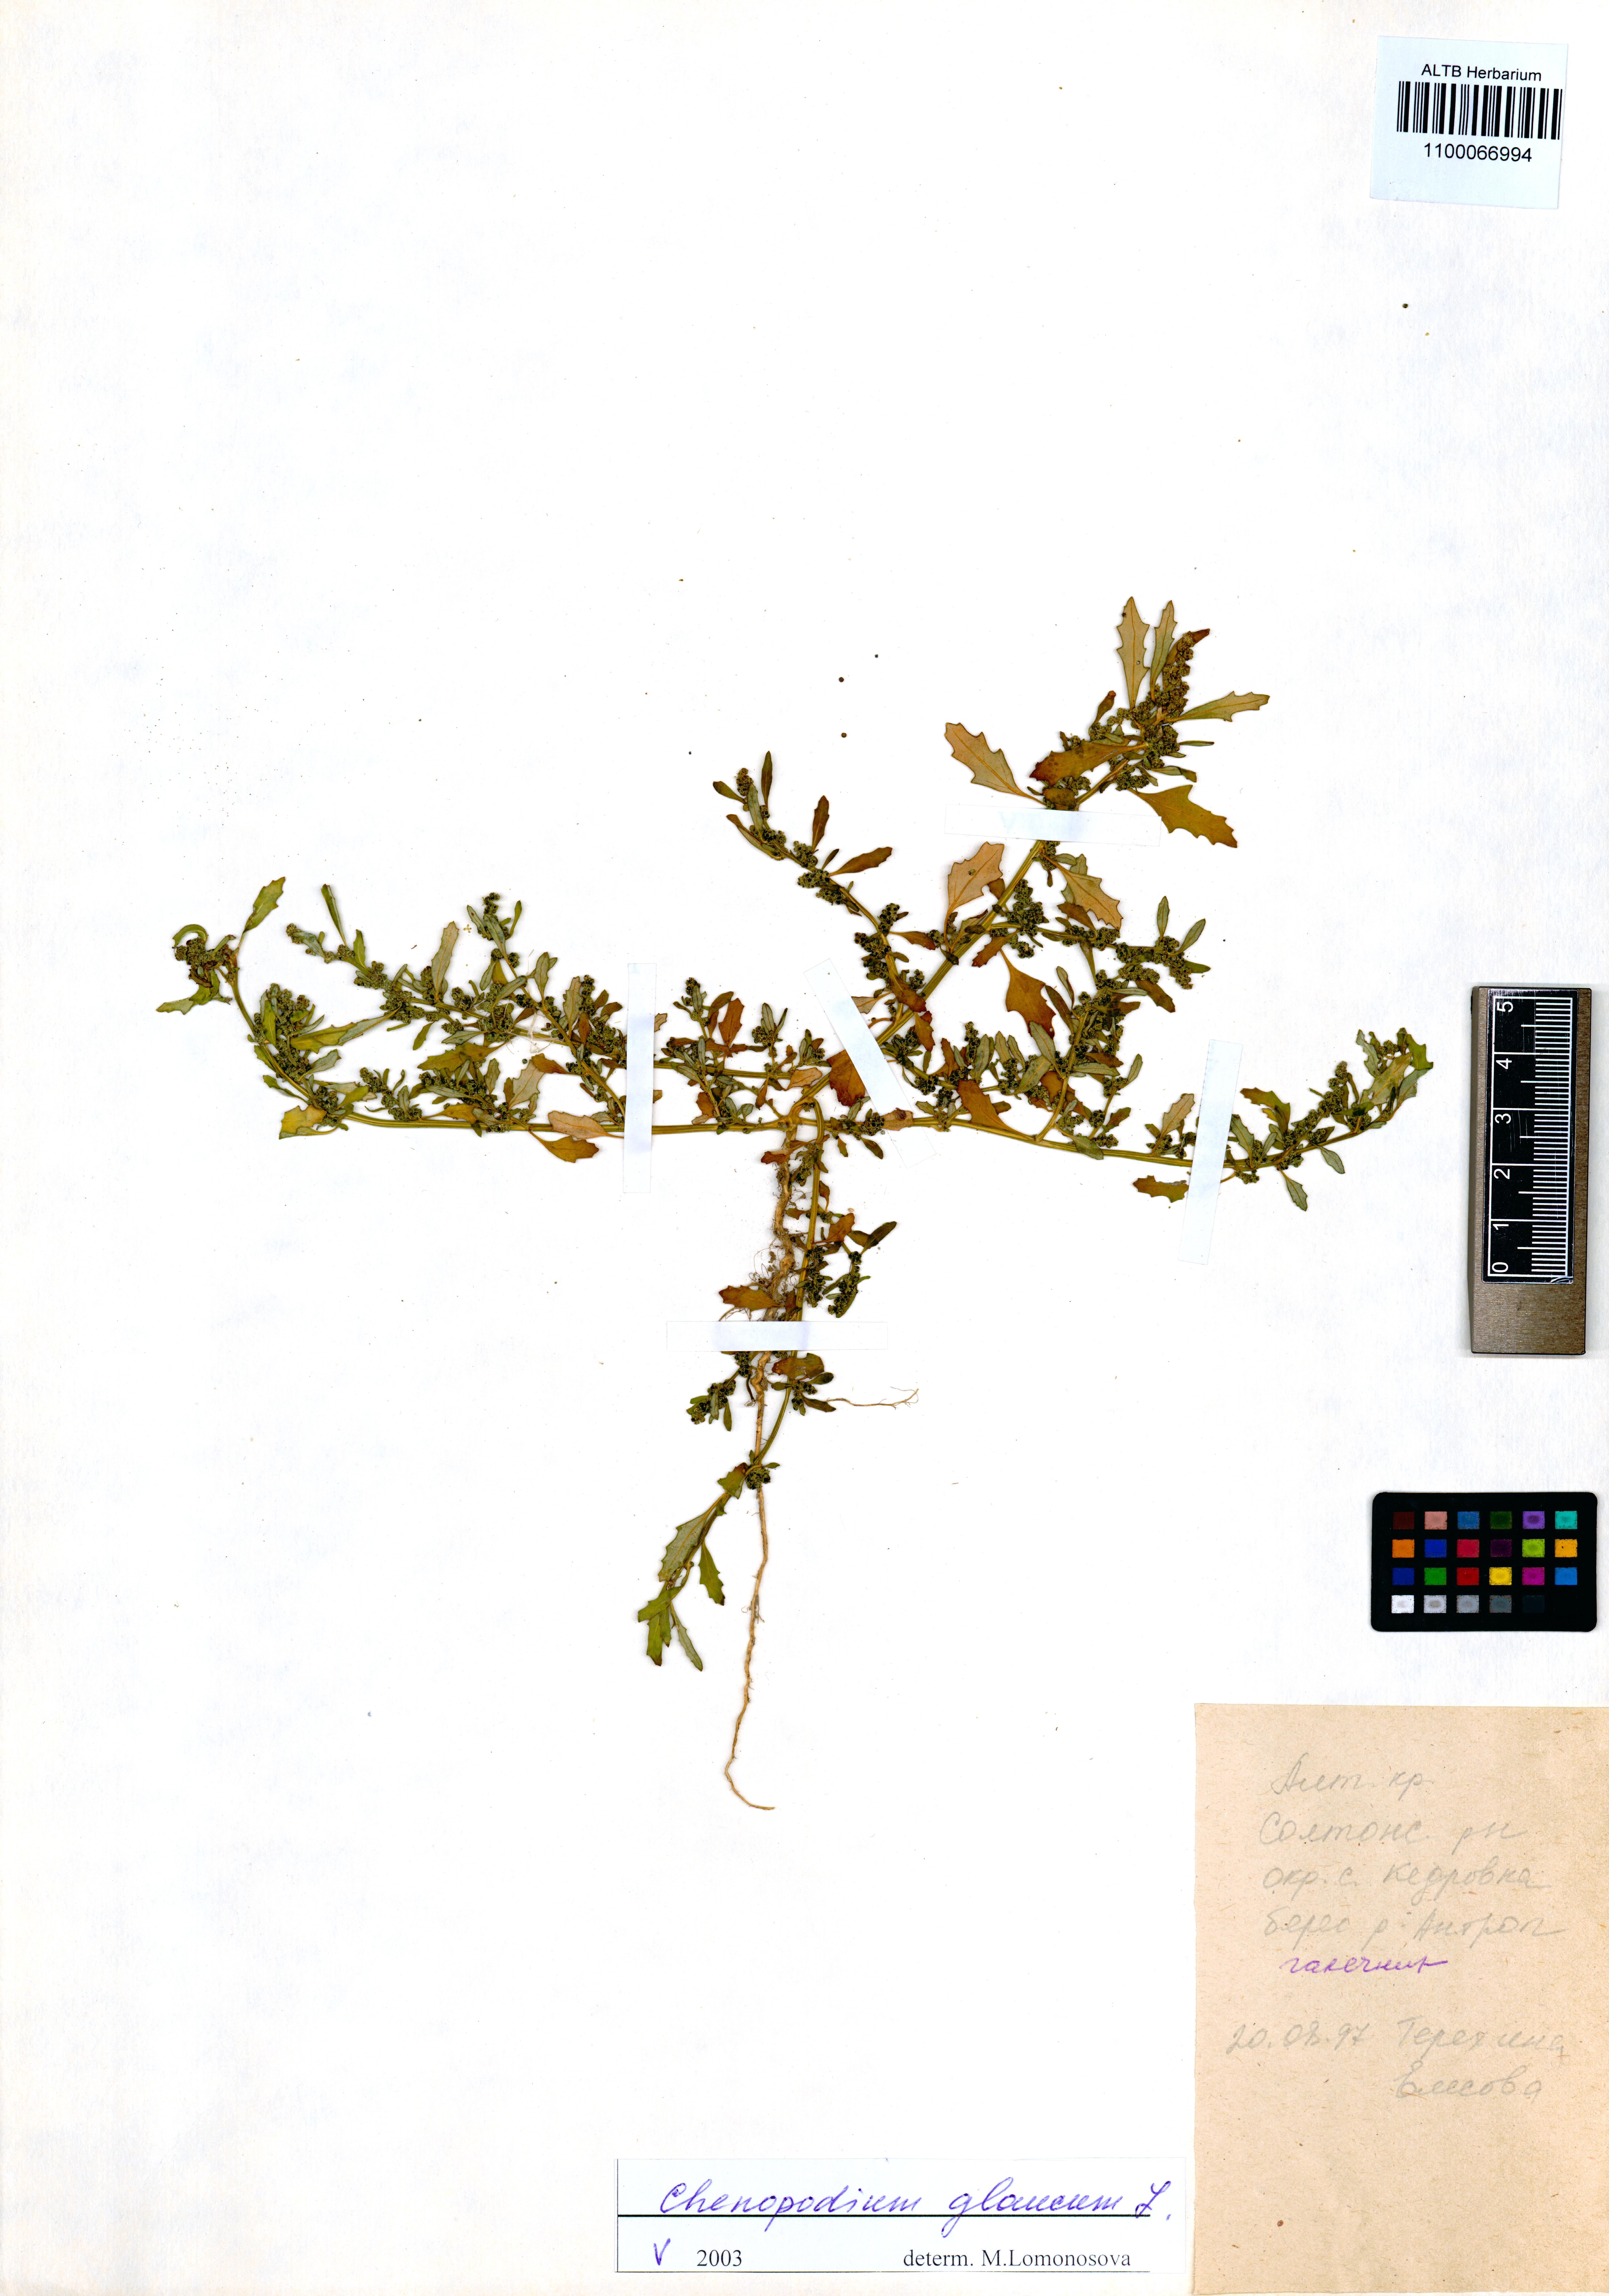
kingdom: Plantae
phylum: Tracheophyta
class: Magnoliopsida
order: Caryophyllales
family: Amaranthaceae
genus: Oxybasis
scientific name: Oxybasis glauca
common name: Glaucous goosefoot
